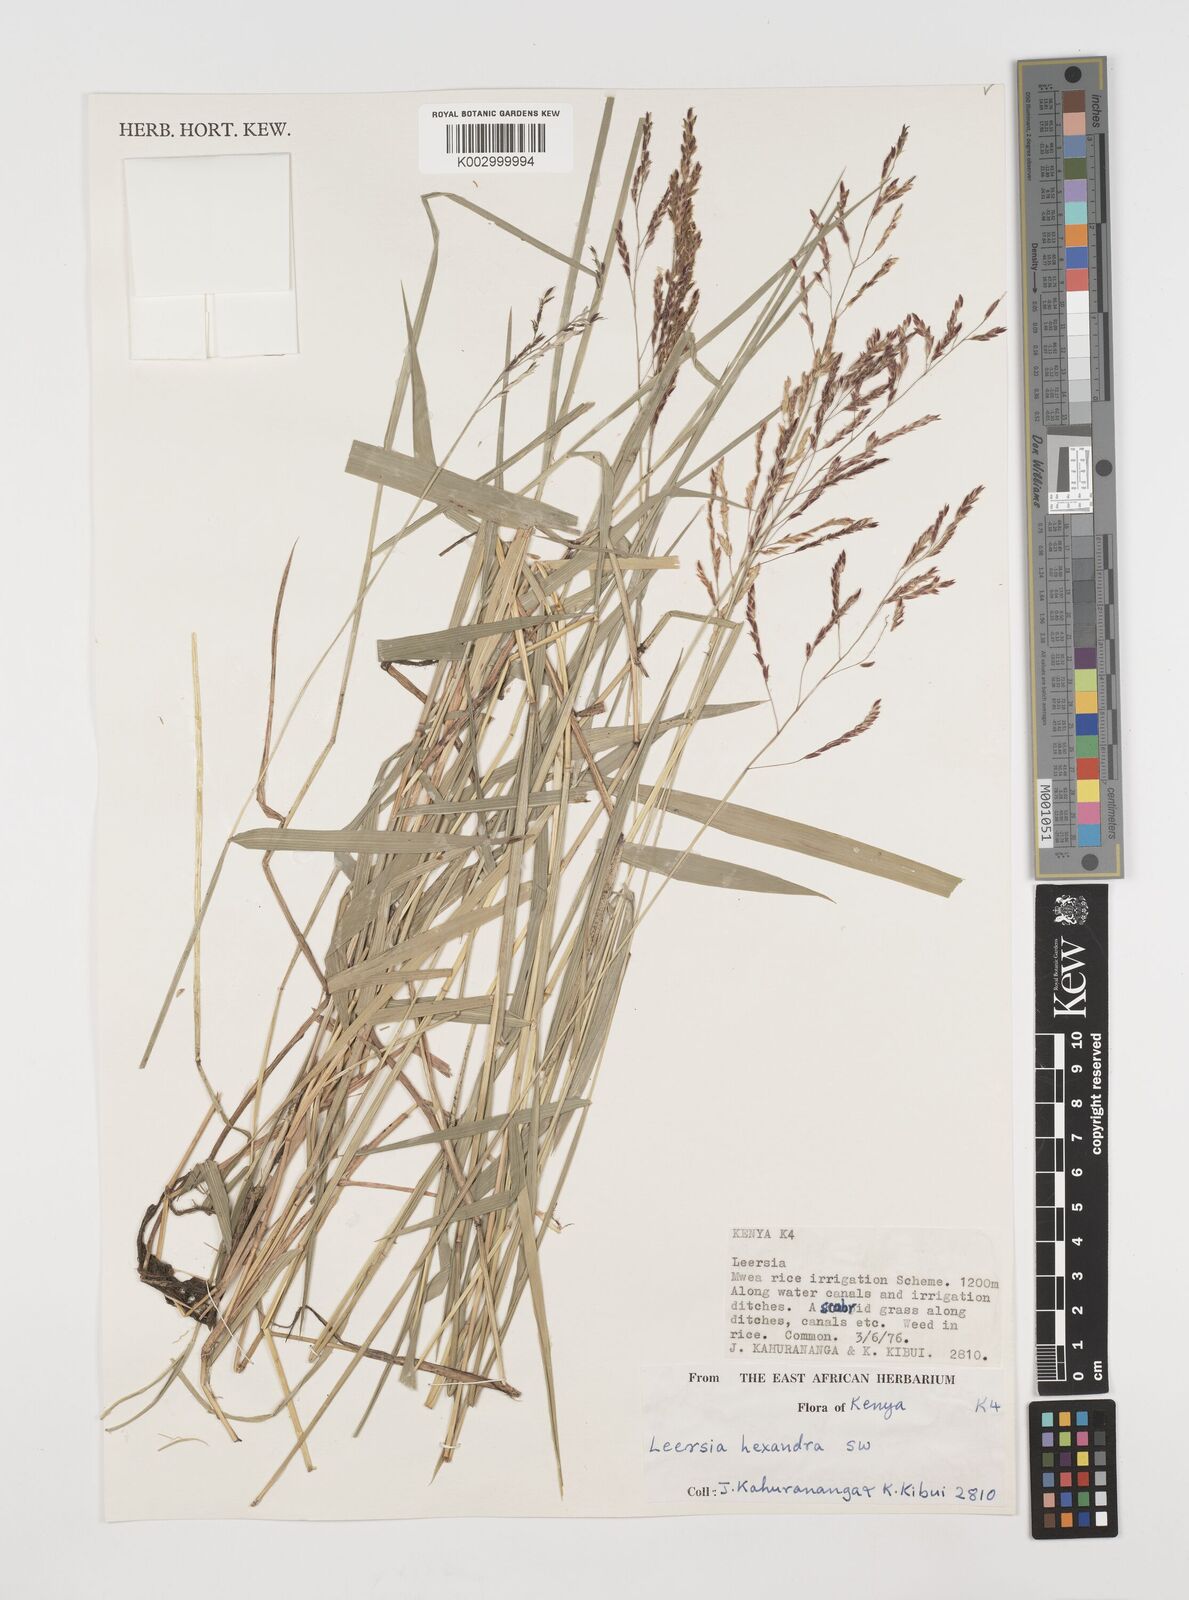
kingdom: Plantae
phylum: Tracheophyta
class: Liliopsida
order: Poales
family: Poaceae
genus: Leersia
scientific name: Leersia hexandra
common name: Southern cut grass
